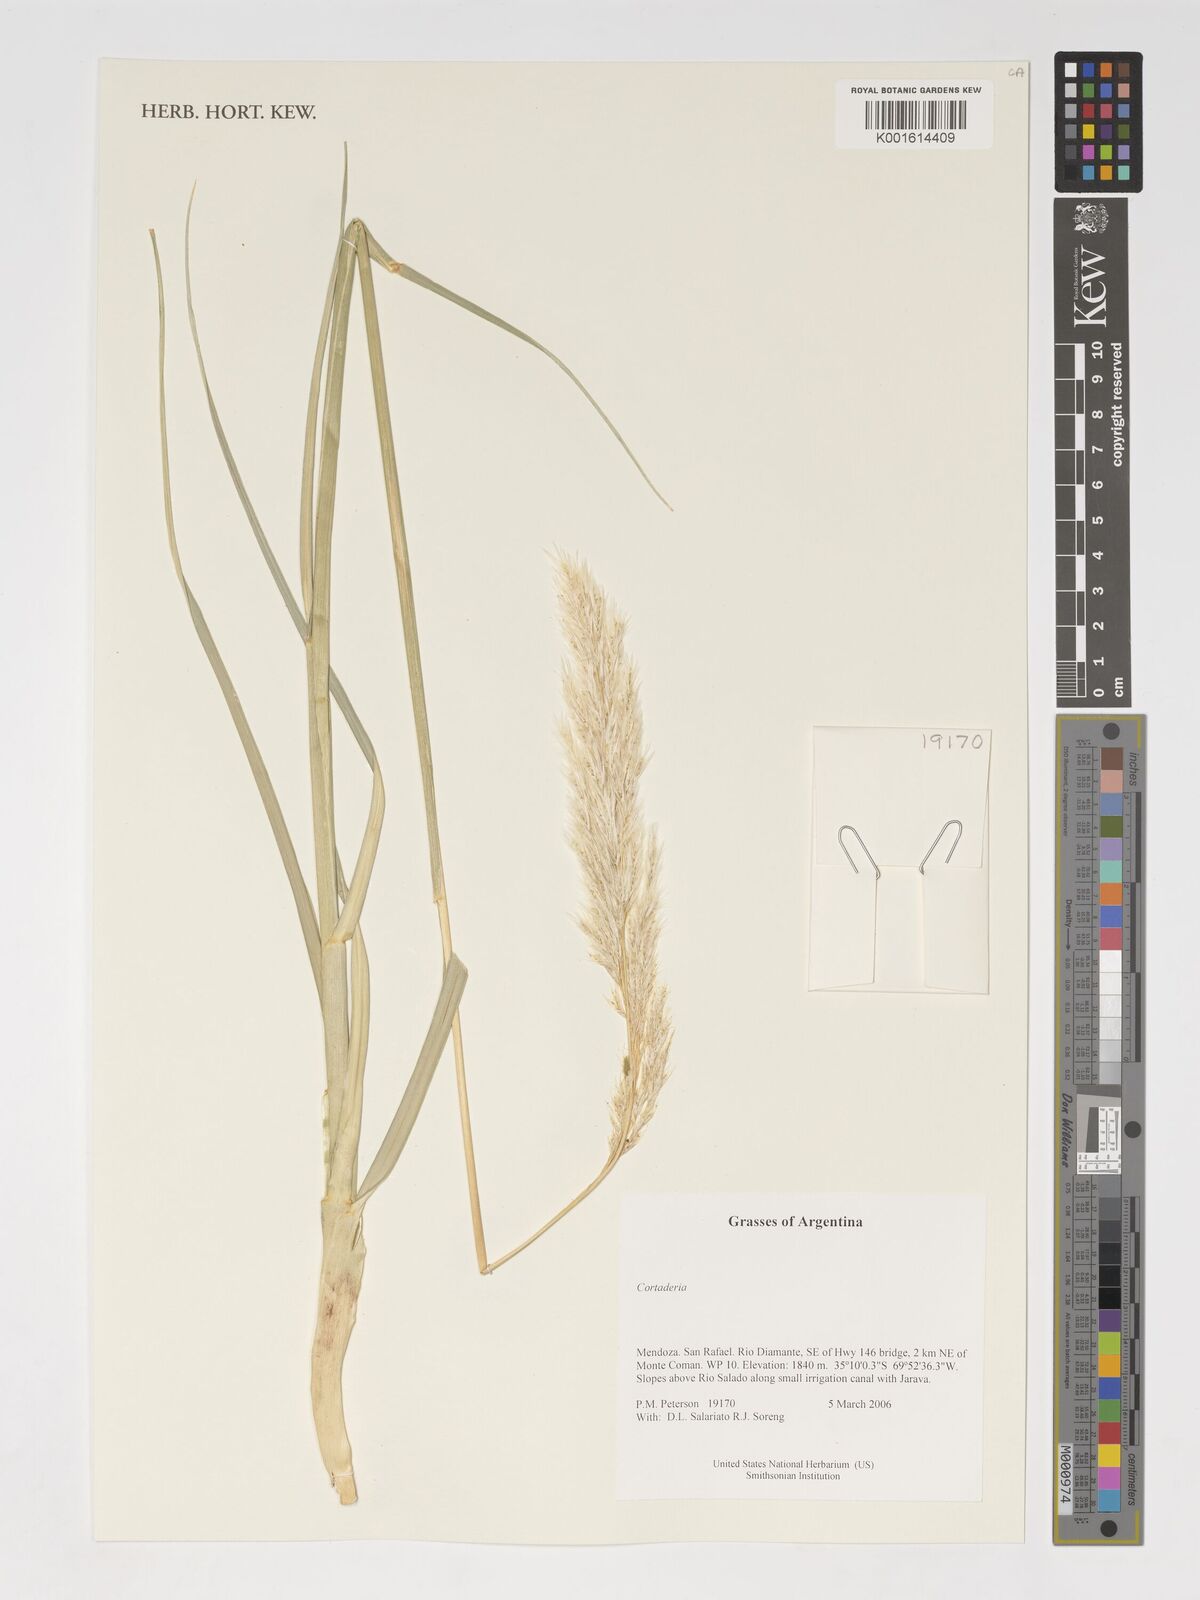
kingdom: Plantae
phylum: Tracheophyta
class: Liliopsida
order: Poales
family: Poaceae
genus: Cortaderia
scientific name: Cortaderia
